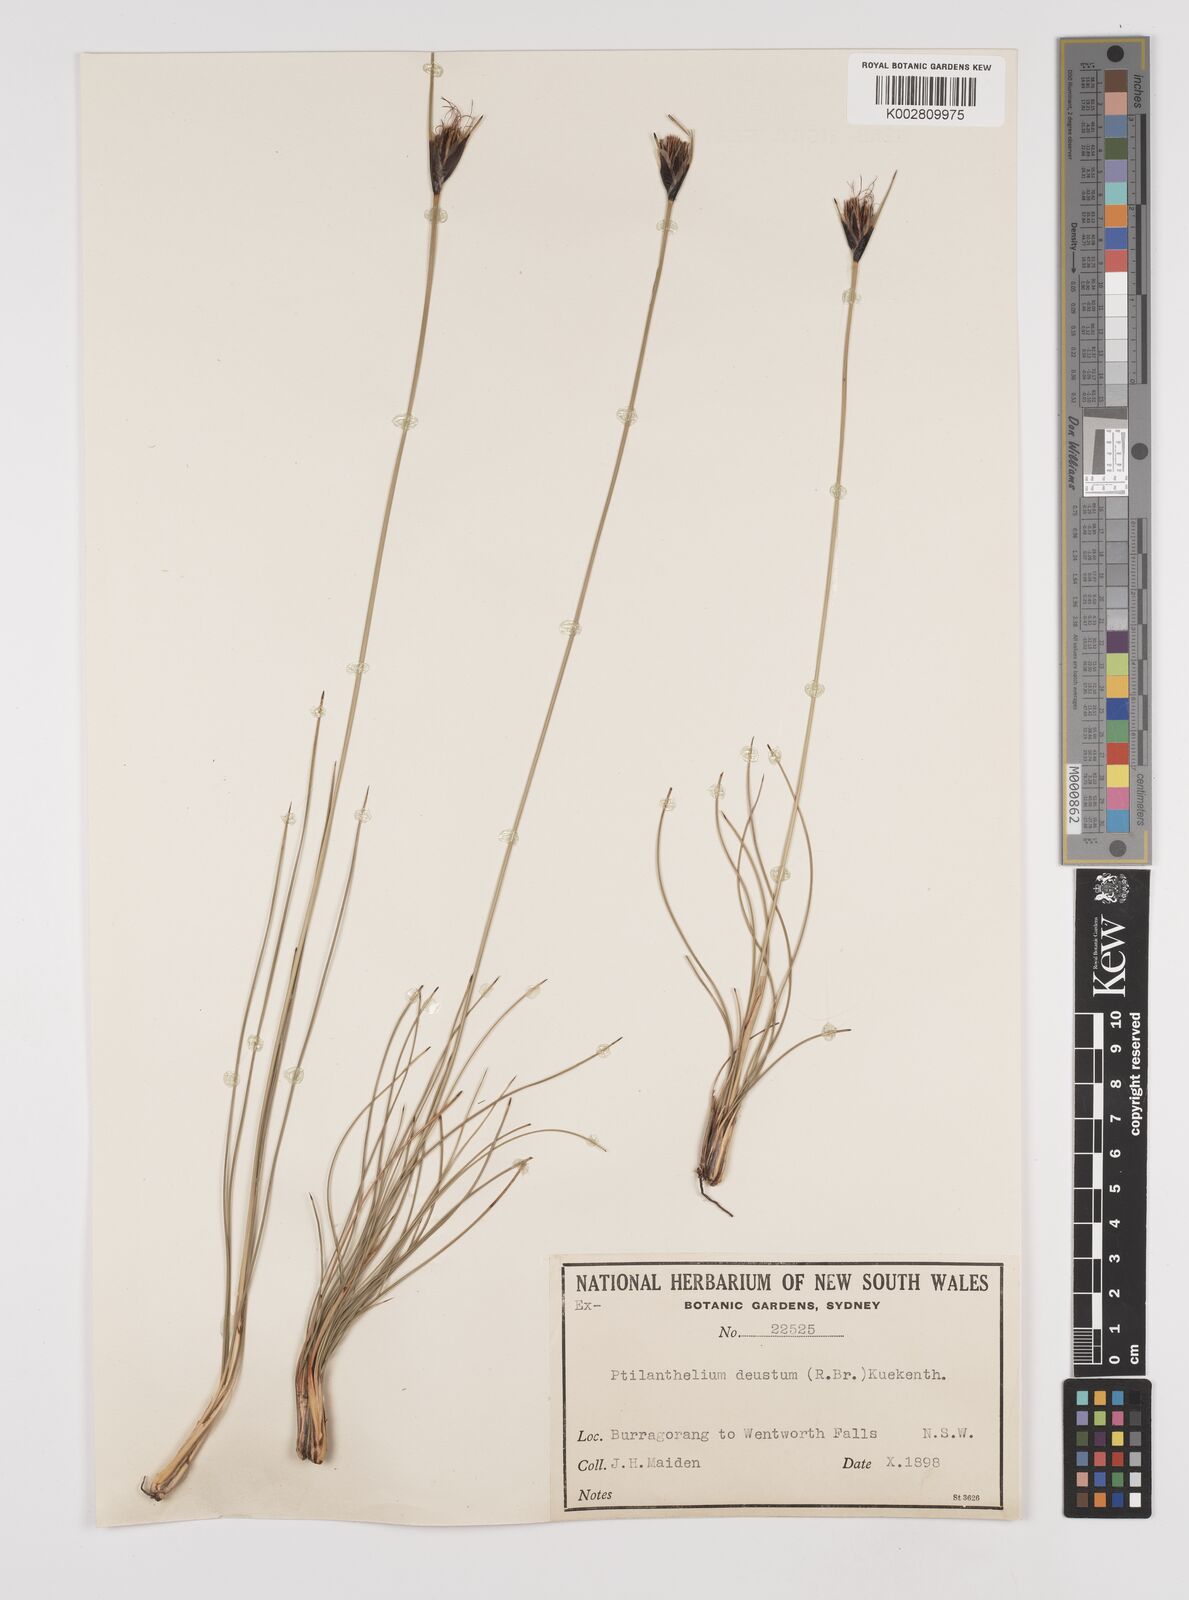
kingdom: Plantae
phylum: Tracheophyta
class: Liliopsida
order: Poales
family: Cyperaceae
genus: Ptilothrix
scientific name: Ptilothrix deusta
